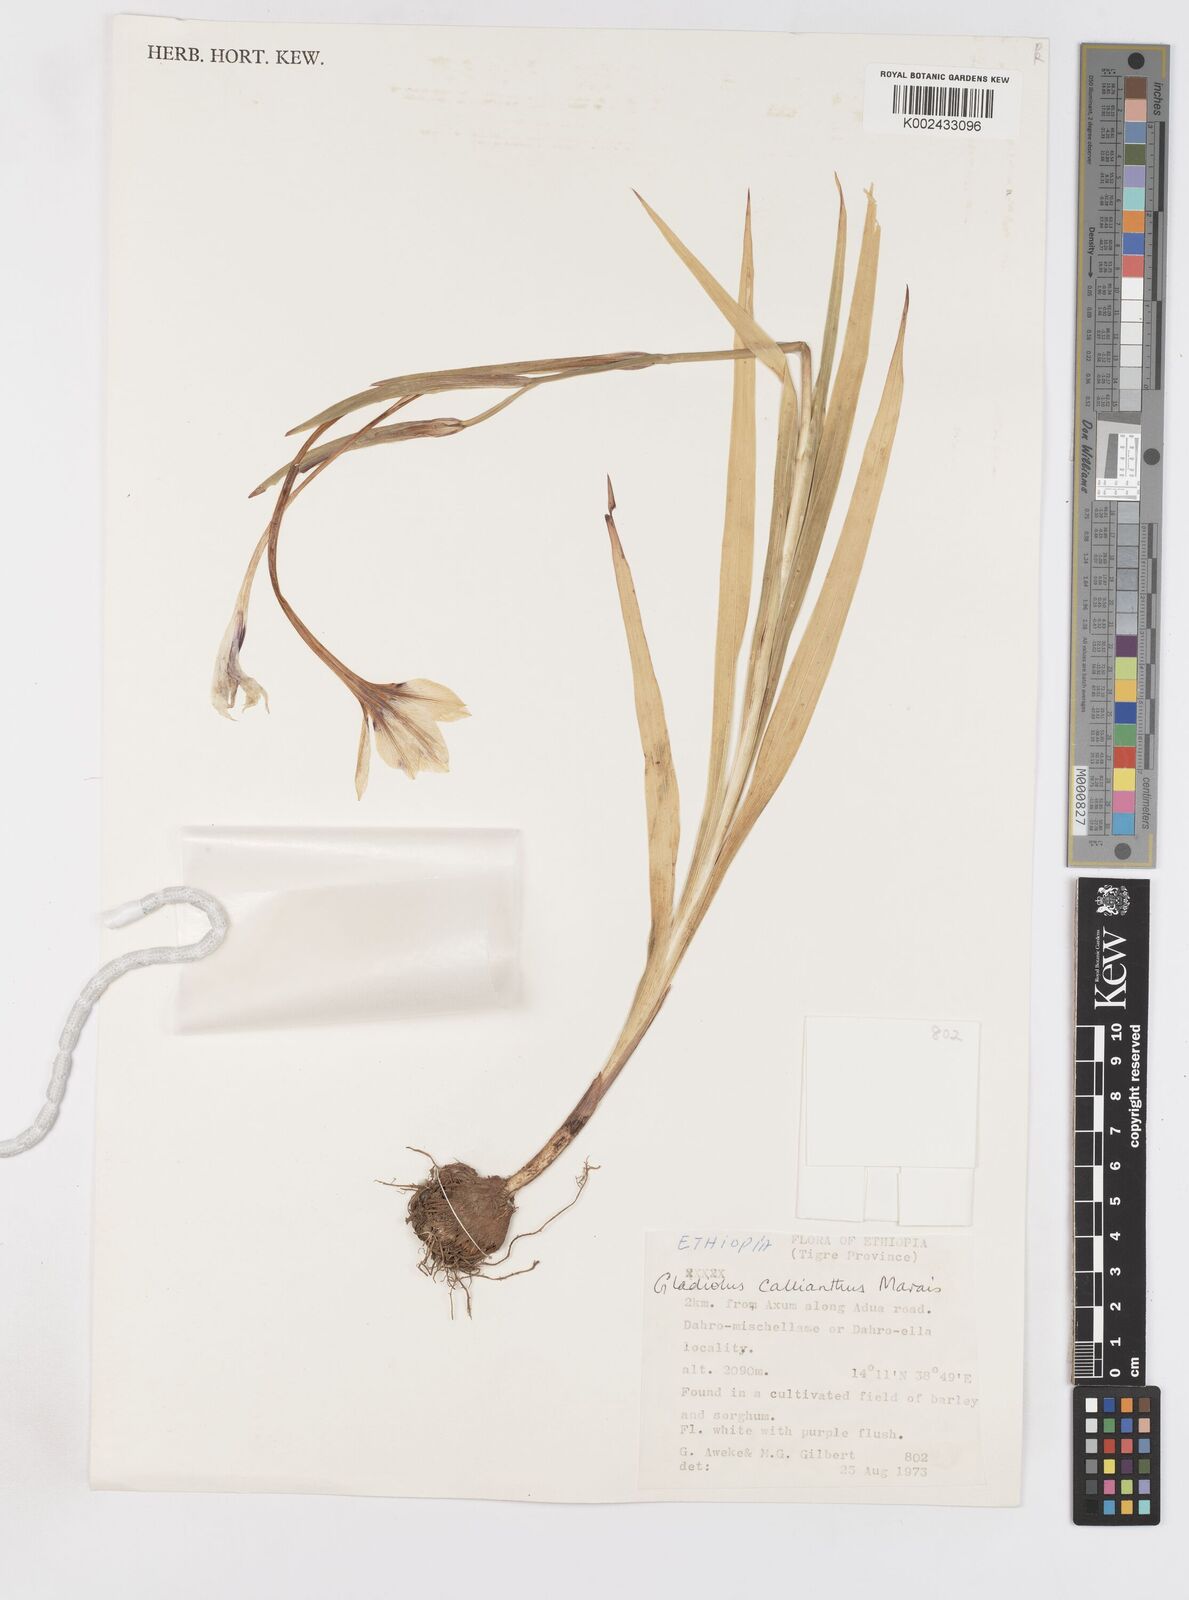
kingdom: Plantae
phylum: Tracheophyta
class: Liliopsida
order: Asparagales
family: Iridaceae
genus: Gladiolus
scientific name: Gladiolus murielae
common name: Acidanthera
